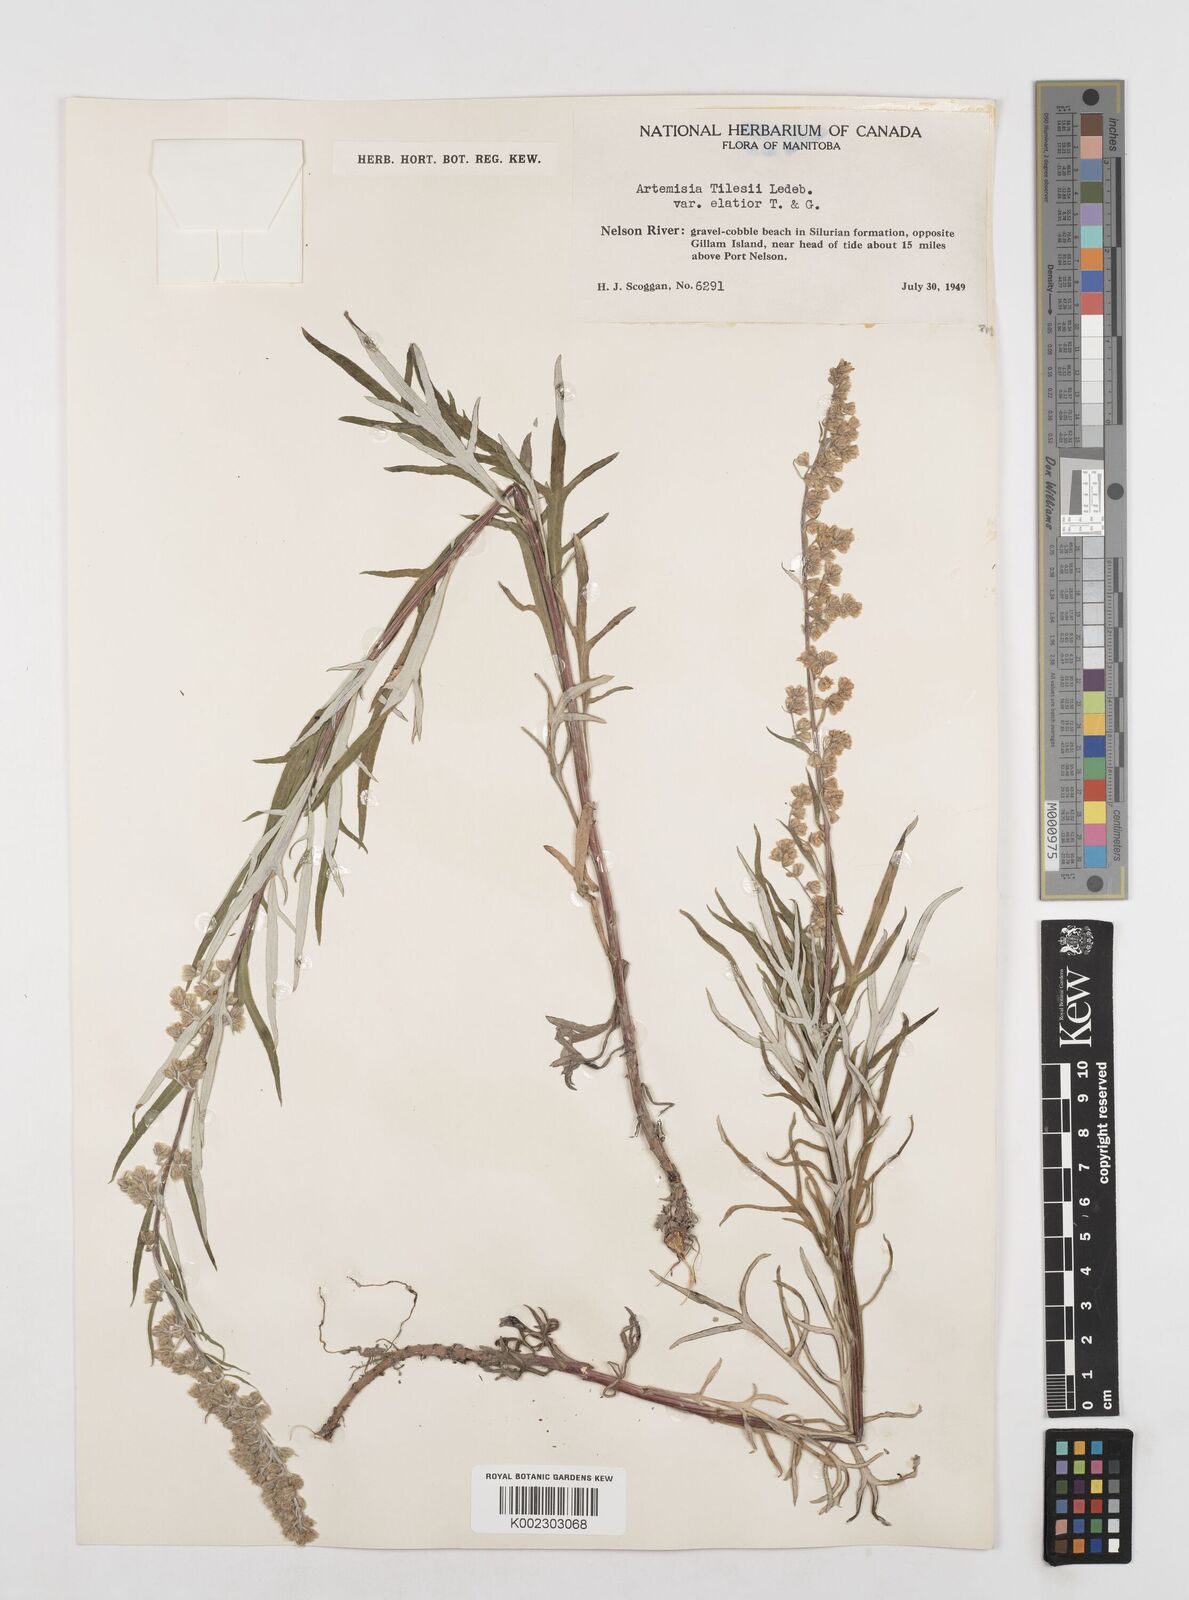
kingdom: Plantae
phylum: Tracheophyta
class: Magnoliopsida
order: Asterales
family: Asteraceae
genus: Artemisia
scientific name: Artemisia tilesii
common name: Aleutian mugwort
